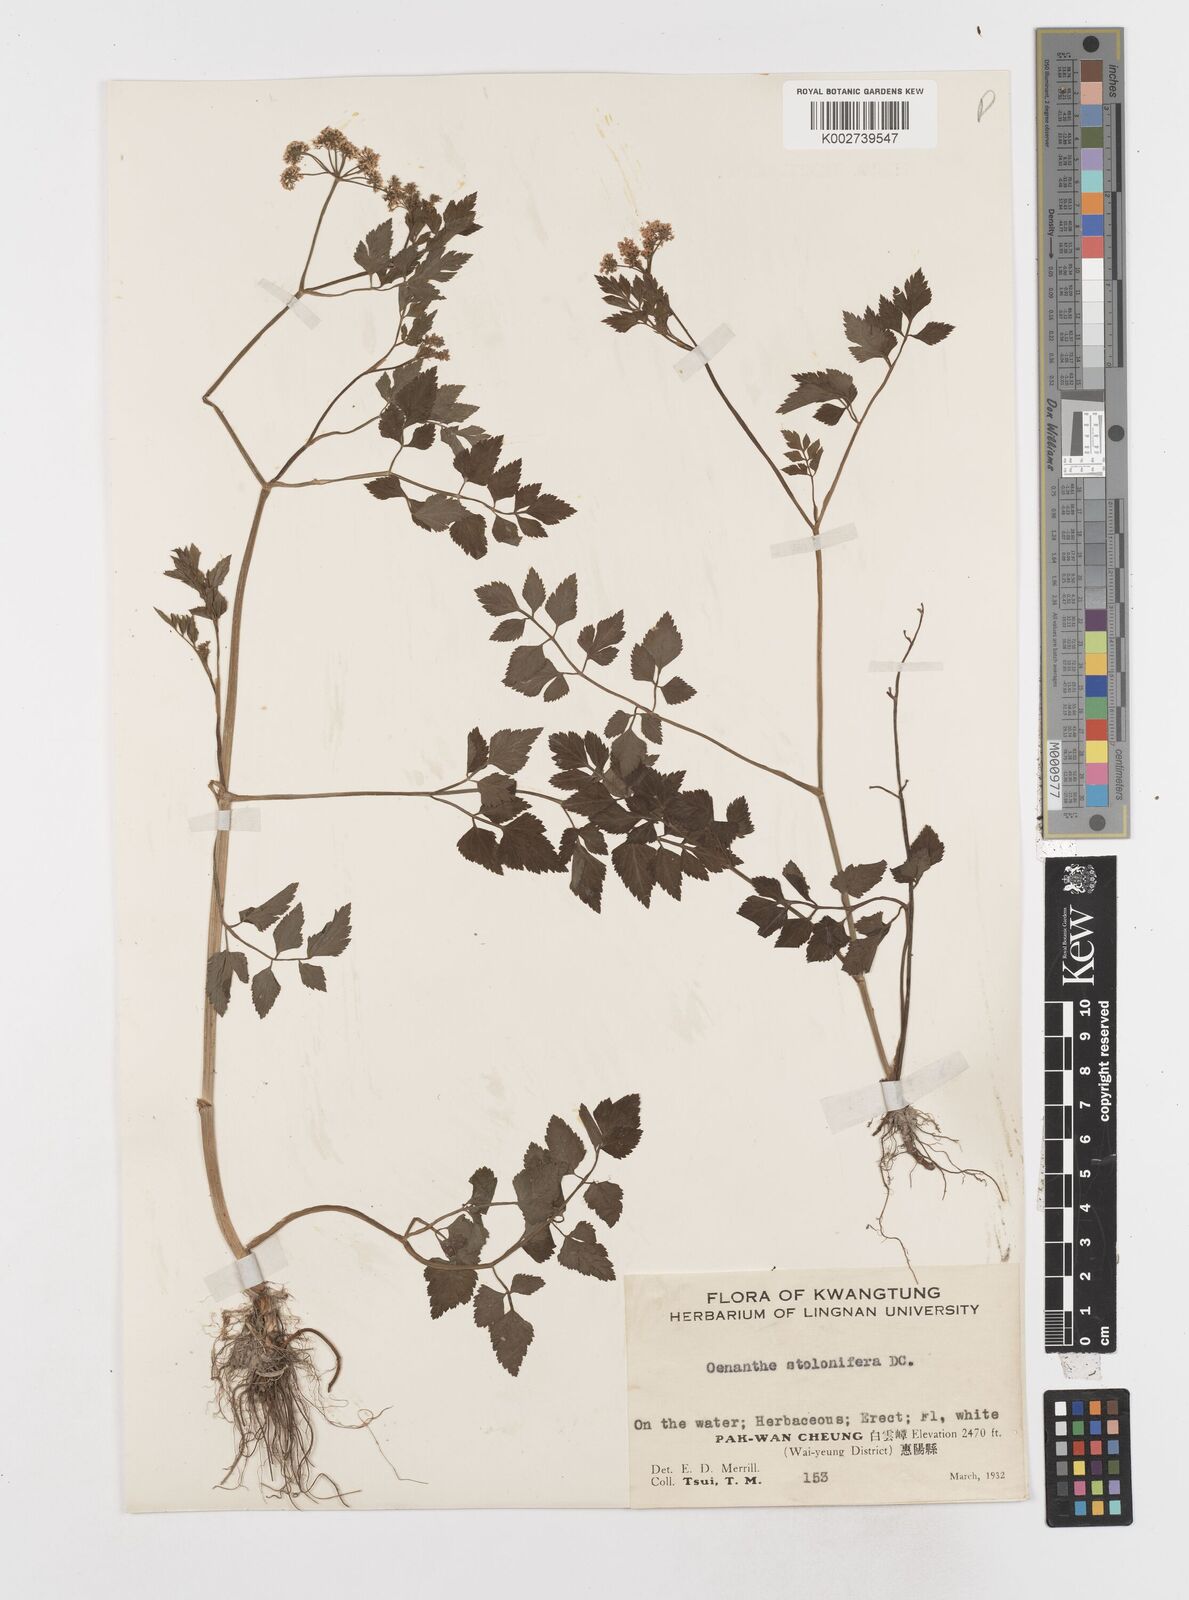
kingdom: Plantae
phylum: Tracheophyta
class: Magnoliopsida
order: Apiales
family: Apiaceae
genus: Oenanthe
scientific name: Oenanthe javanica
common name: Java water-dropwort
